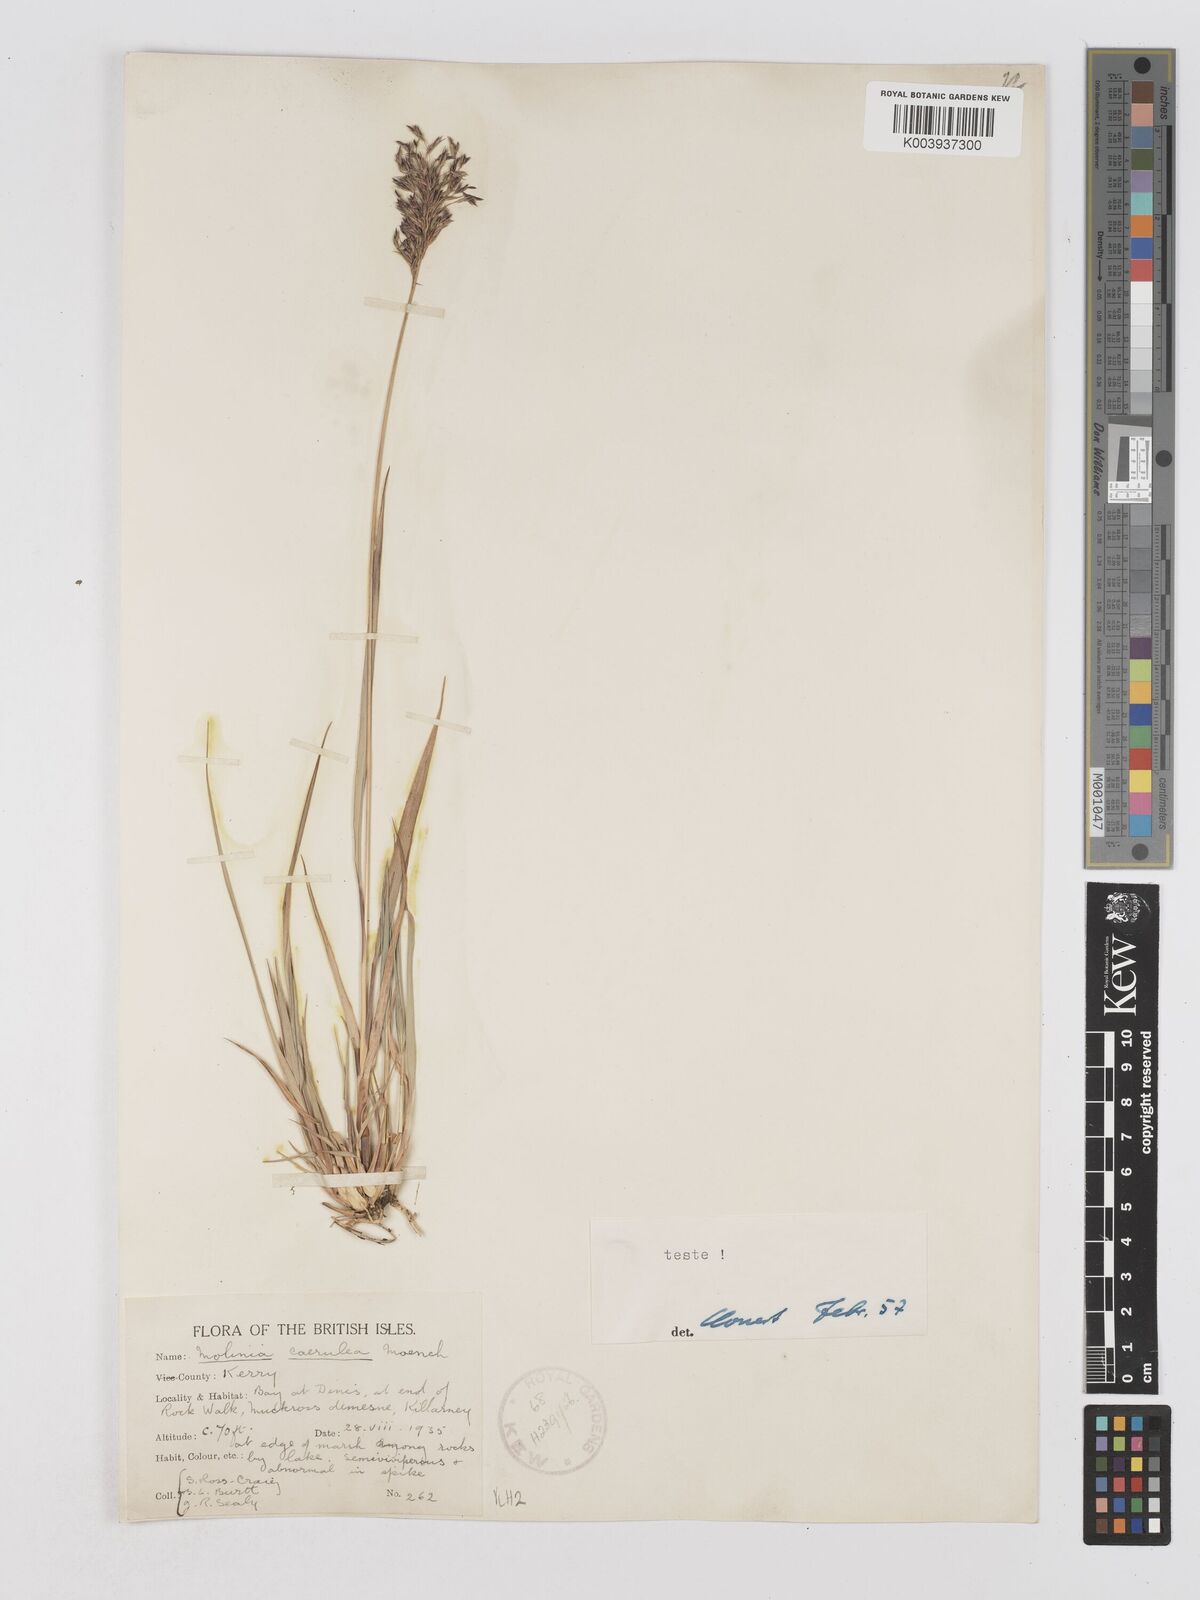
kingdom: Plantae
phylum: Tracheophyta
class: Liliopsida
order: Poales
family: Poaceae
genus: Molinia
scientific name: Molinia caerulea
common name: Purple moor-grass
